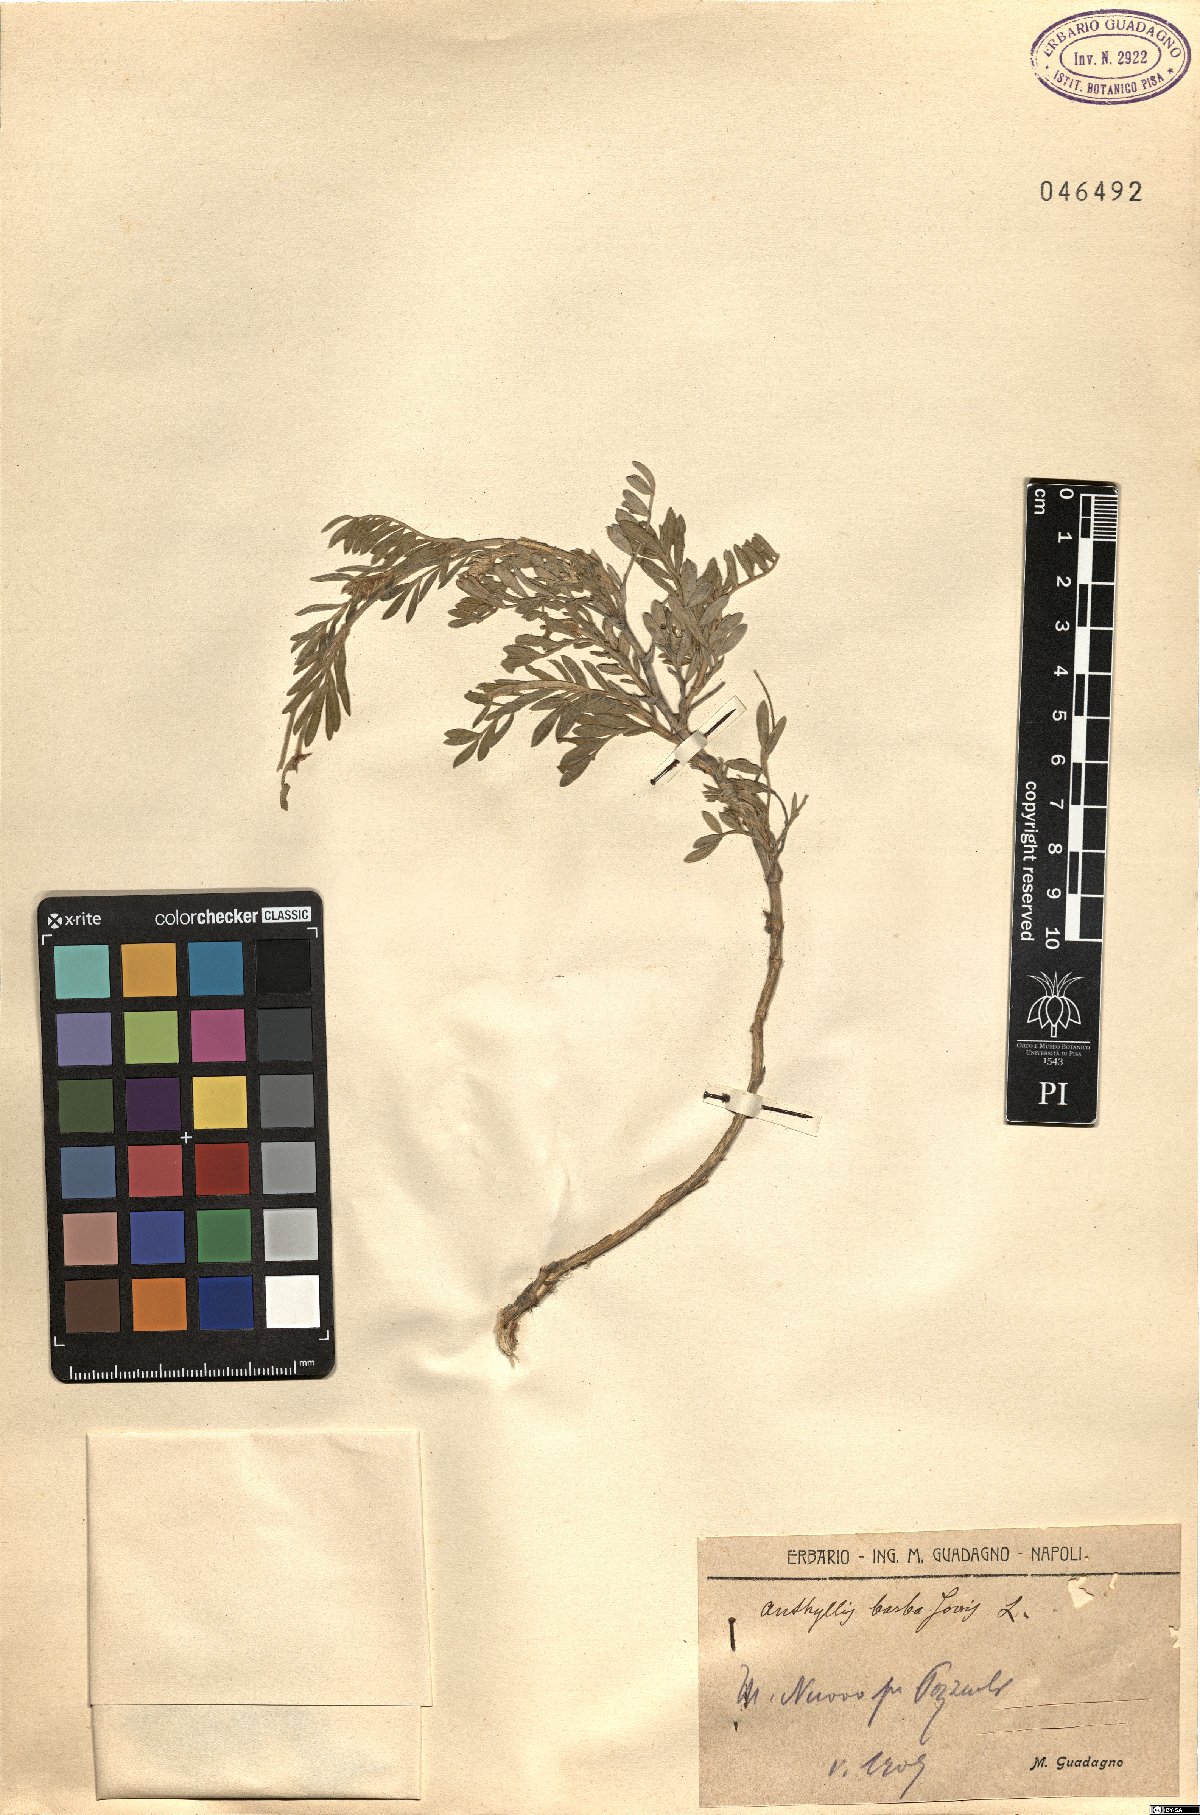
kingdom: Plantae
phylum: Tracheophyta
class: Magnoliopsida
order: Fabales
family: Fabaceae
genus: Anthyllis
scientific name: Anthyllis barba-jovis
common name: Jupiter's-beard
